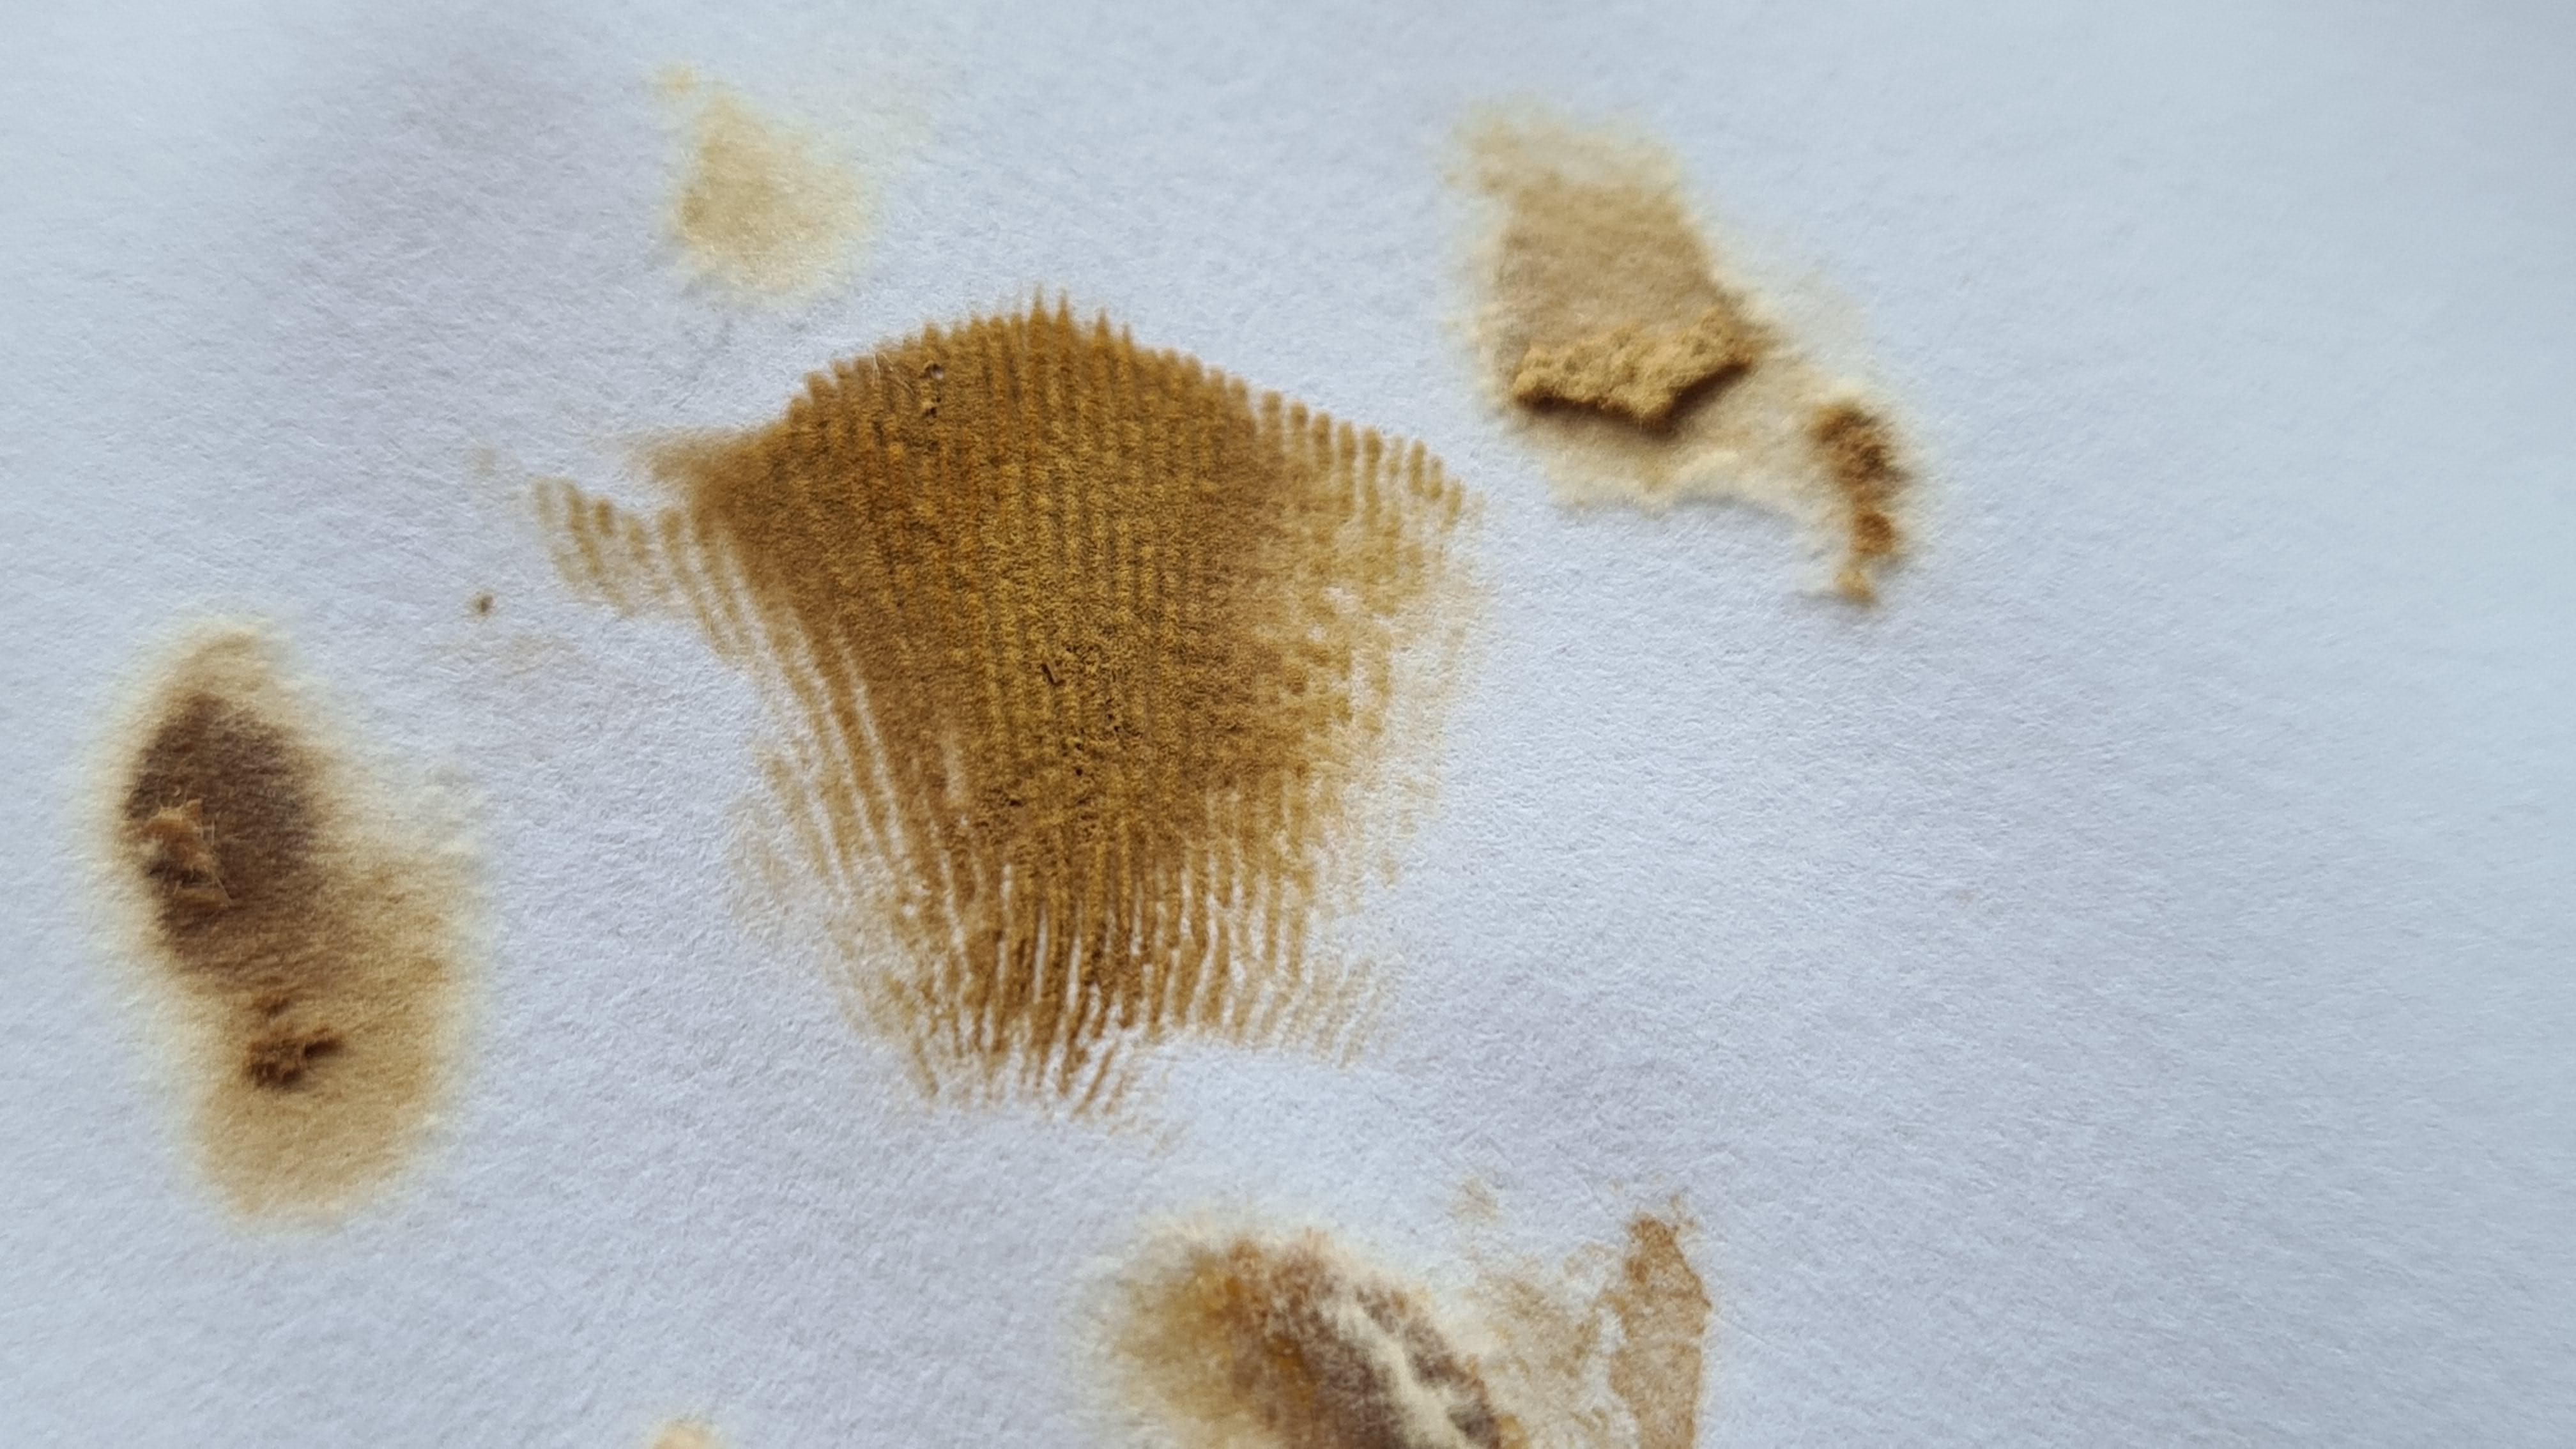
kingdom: Fungi
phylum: Basidiomycota
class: Agaricomycetes
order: Boletales
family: Paxillaceae
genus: Paxillus
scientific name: Paxillus ammoniavirescens
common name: olivensporet netbladhat
